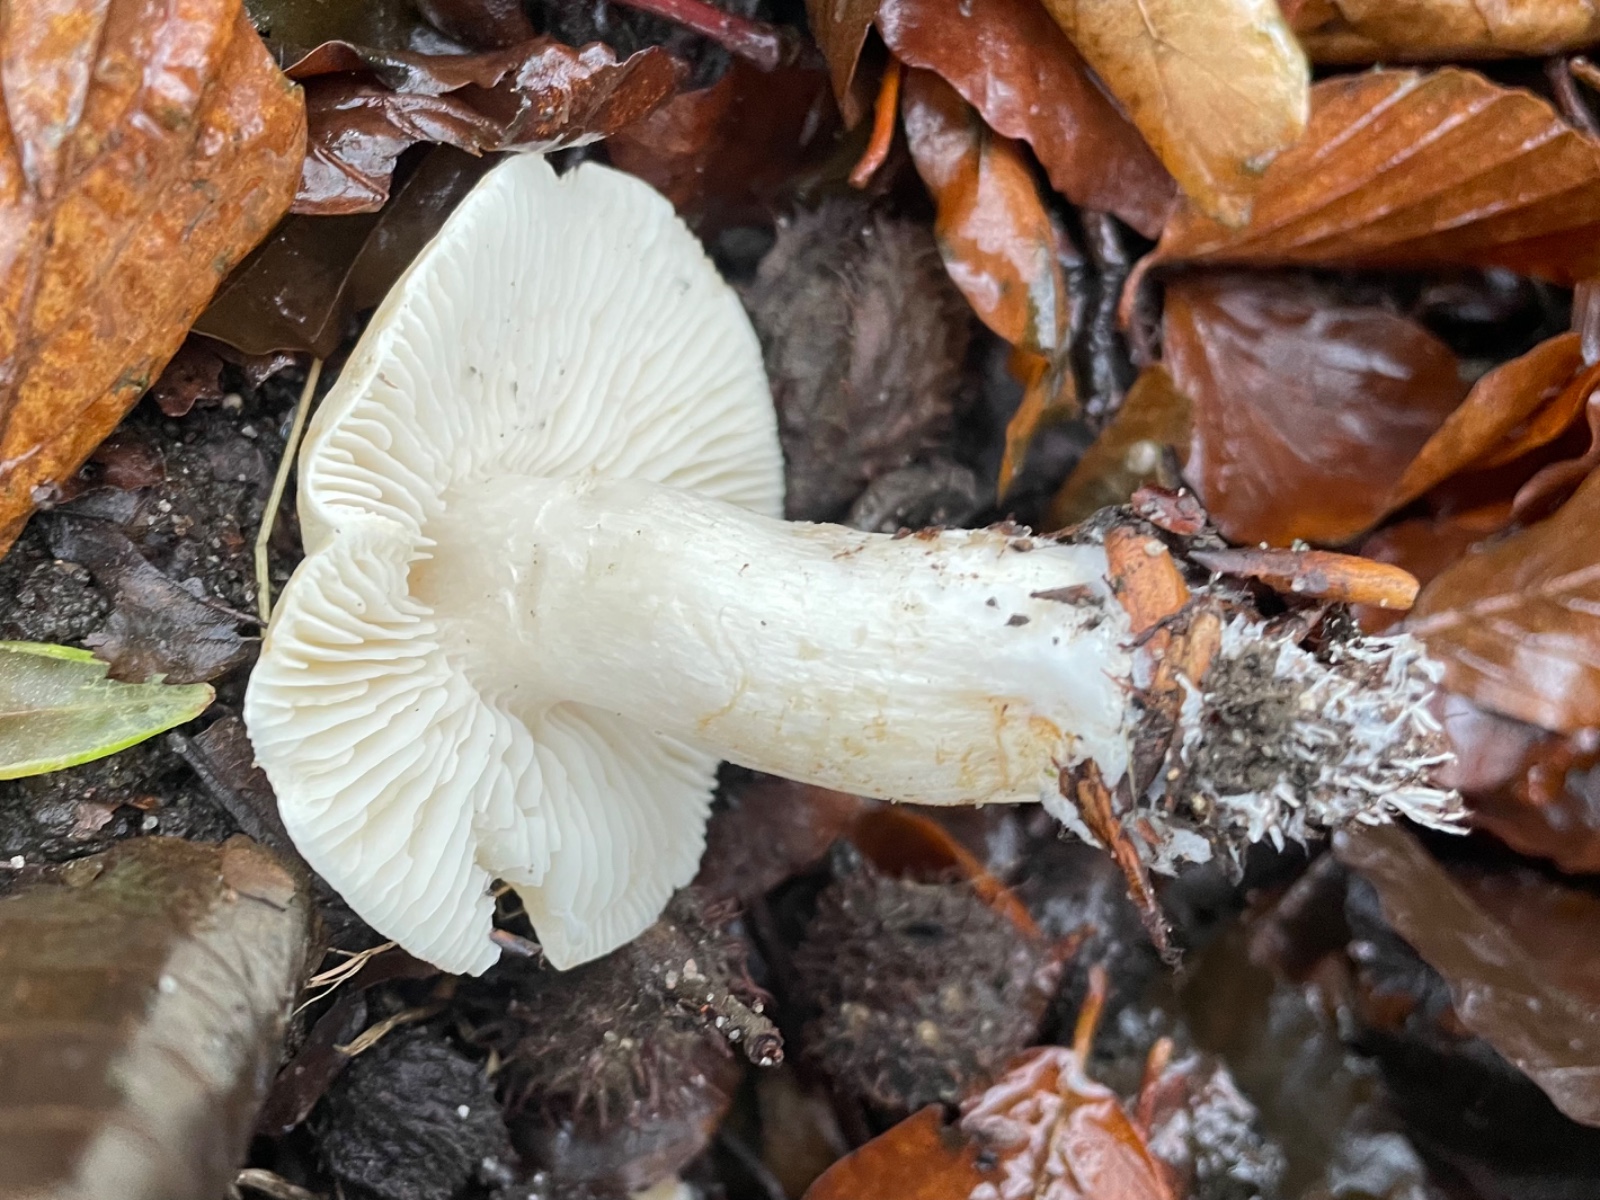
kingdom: Fungi
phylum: Basidiomycota
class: Agaricomycetes
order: Agaricales
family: Tricholomataceae
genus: Tricholoma
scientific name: Tricholoma lascivum
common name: stinkende ridderhat
